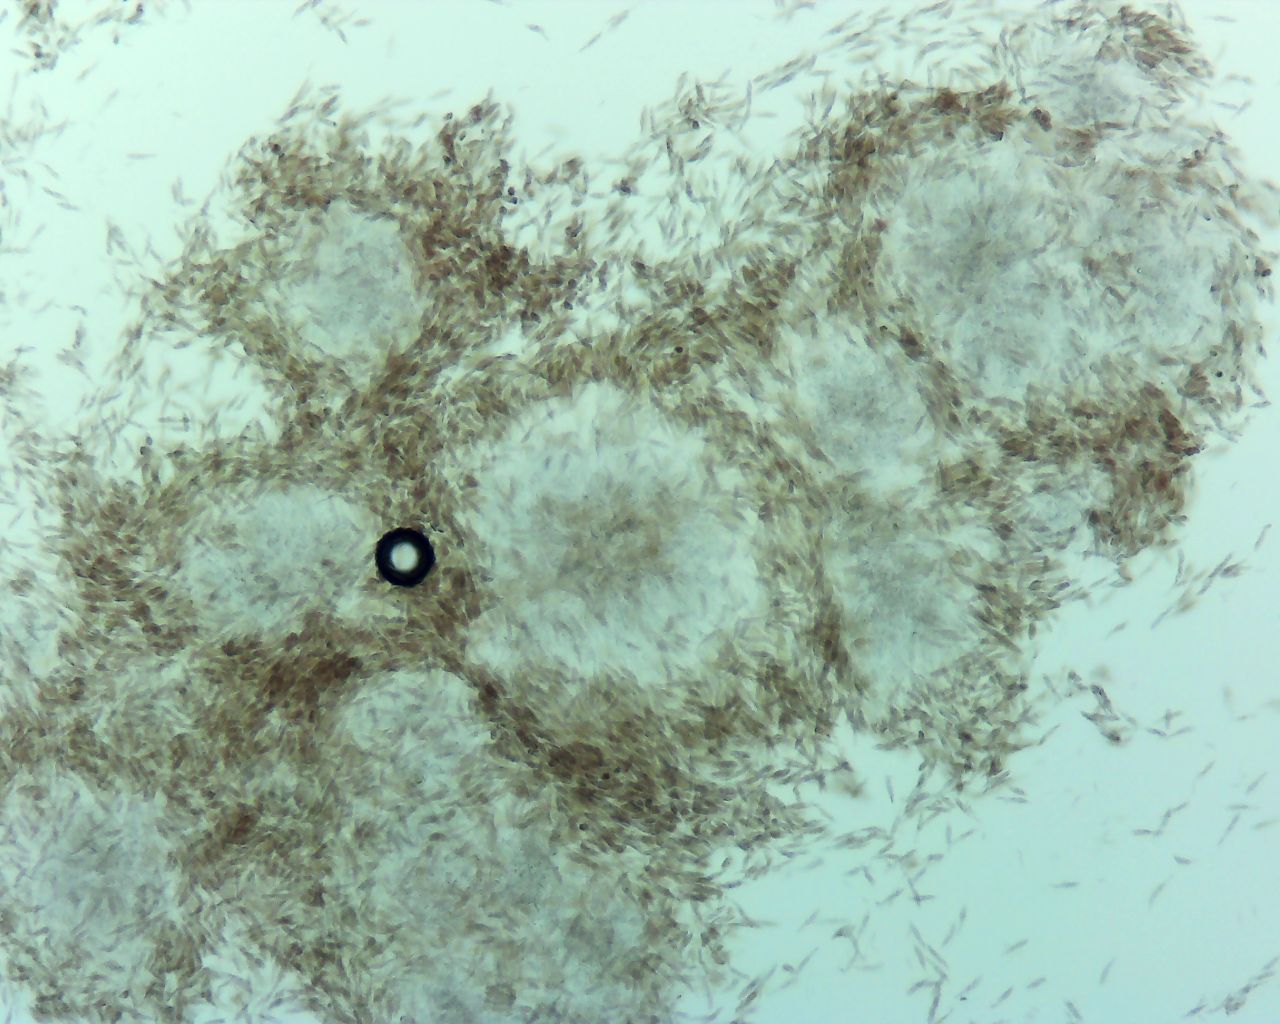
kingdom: Fungi
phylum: Ascomycota
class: Sordariomycetes
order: Xylariales
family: Diatrypaceae
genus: Eutypa
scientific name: Eutypa spinosa
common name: grov kulskorpe
